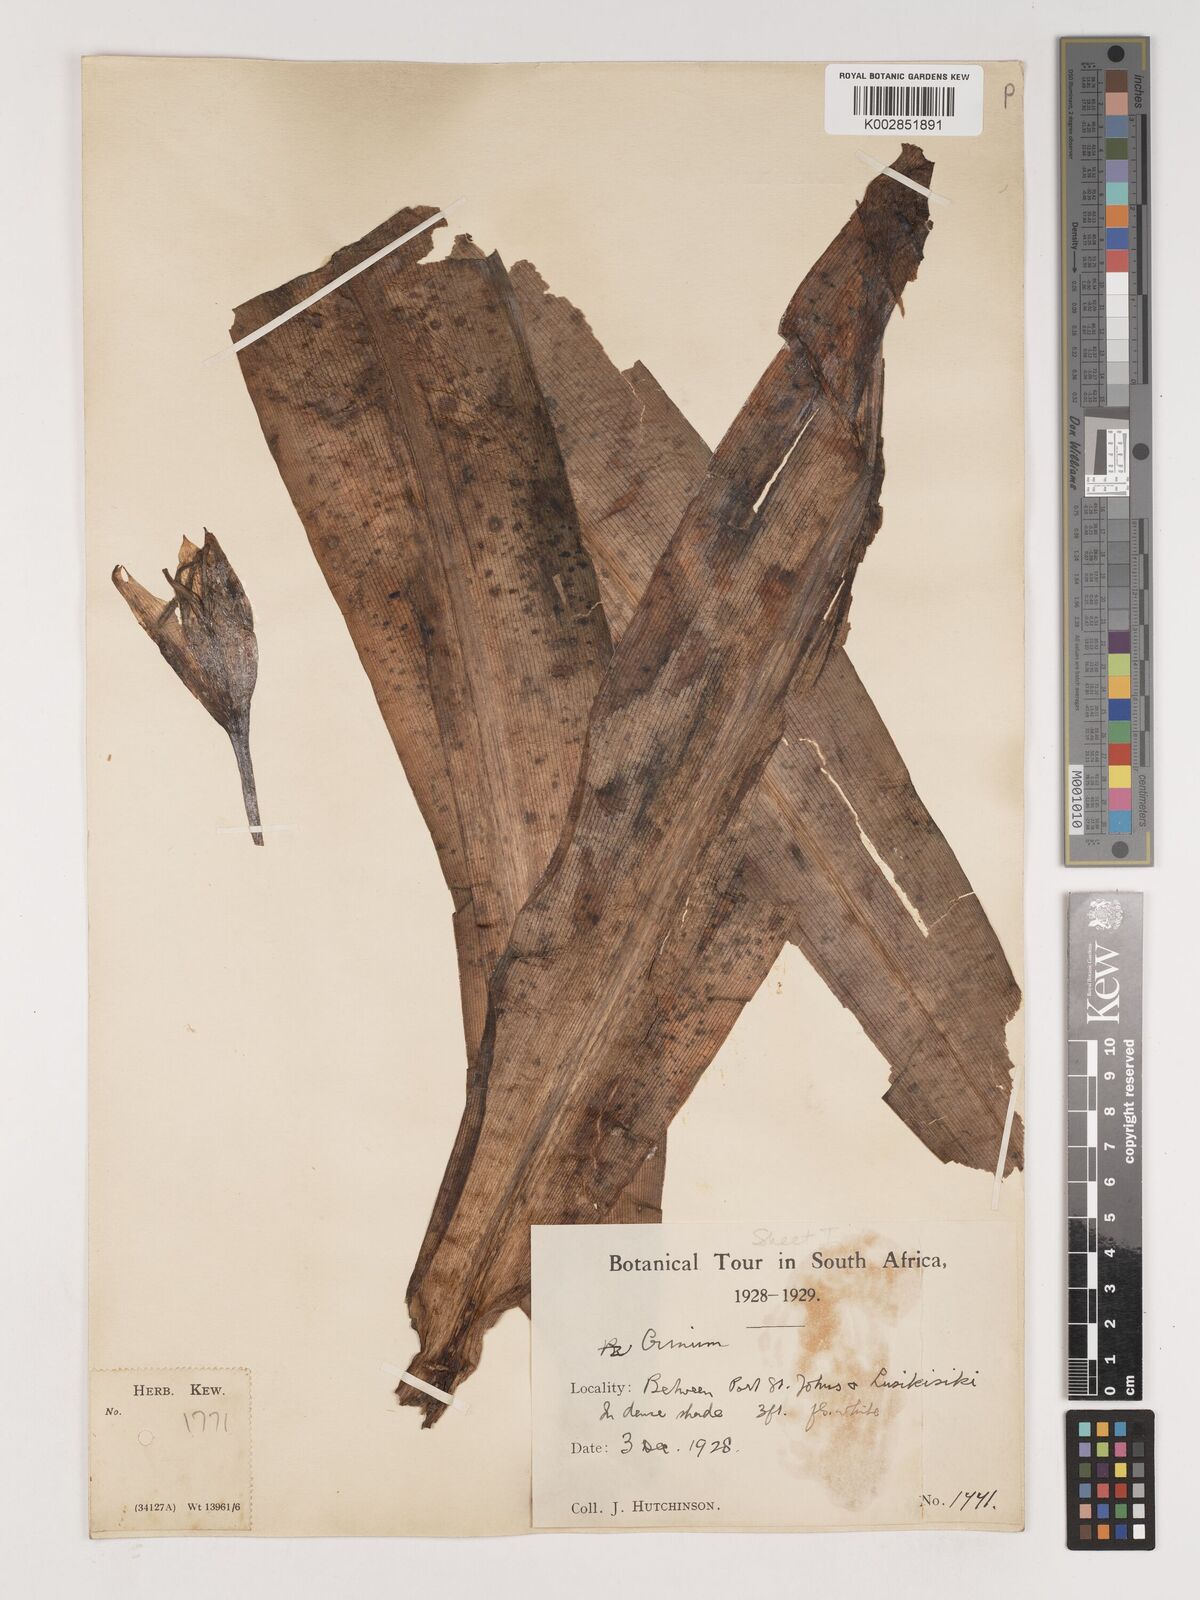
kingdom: Plantae
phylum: Tracheophyta
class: Liliopsida
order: Asparagales
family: Amaryllidaceae
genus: Crinum
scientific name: Crinum bulbispermum
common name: Hardy swamplily
